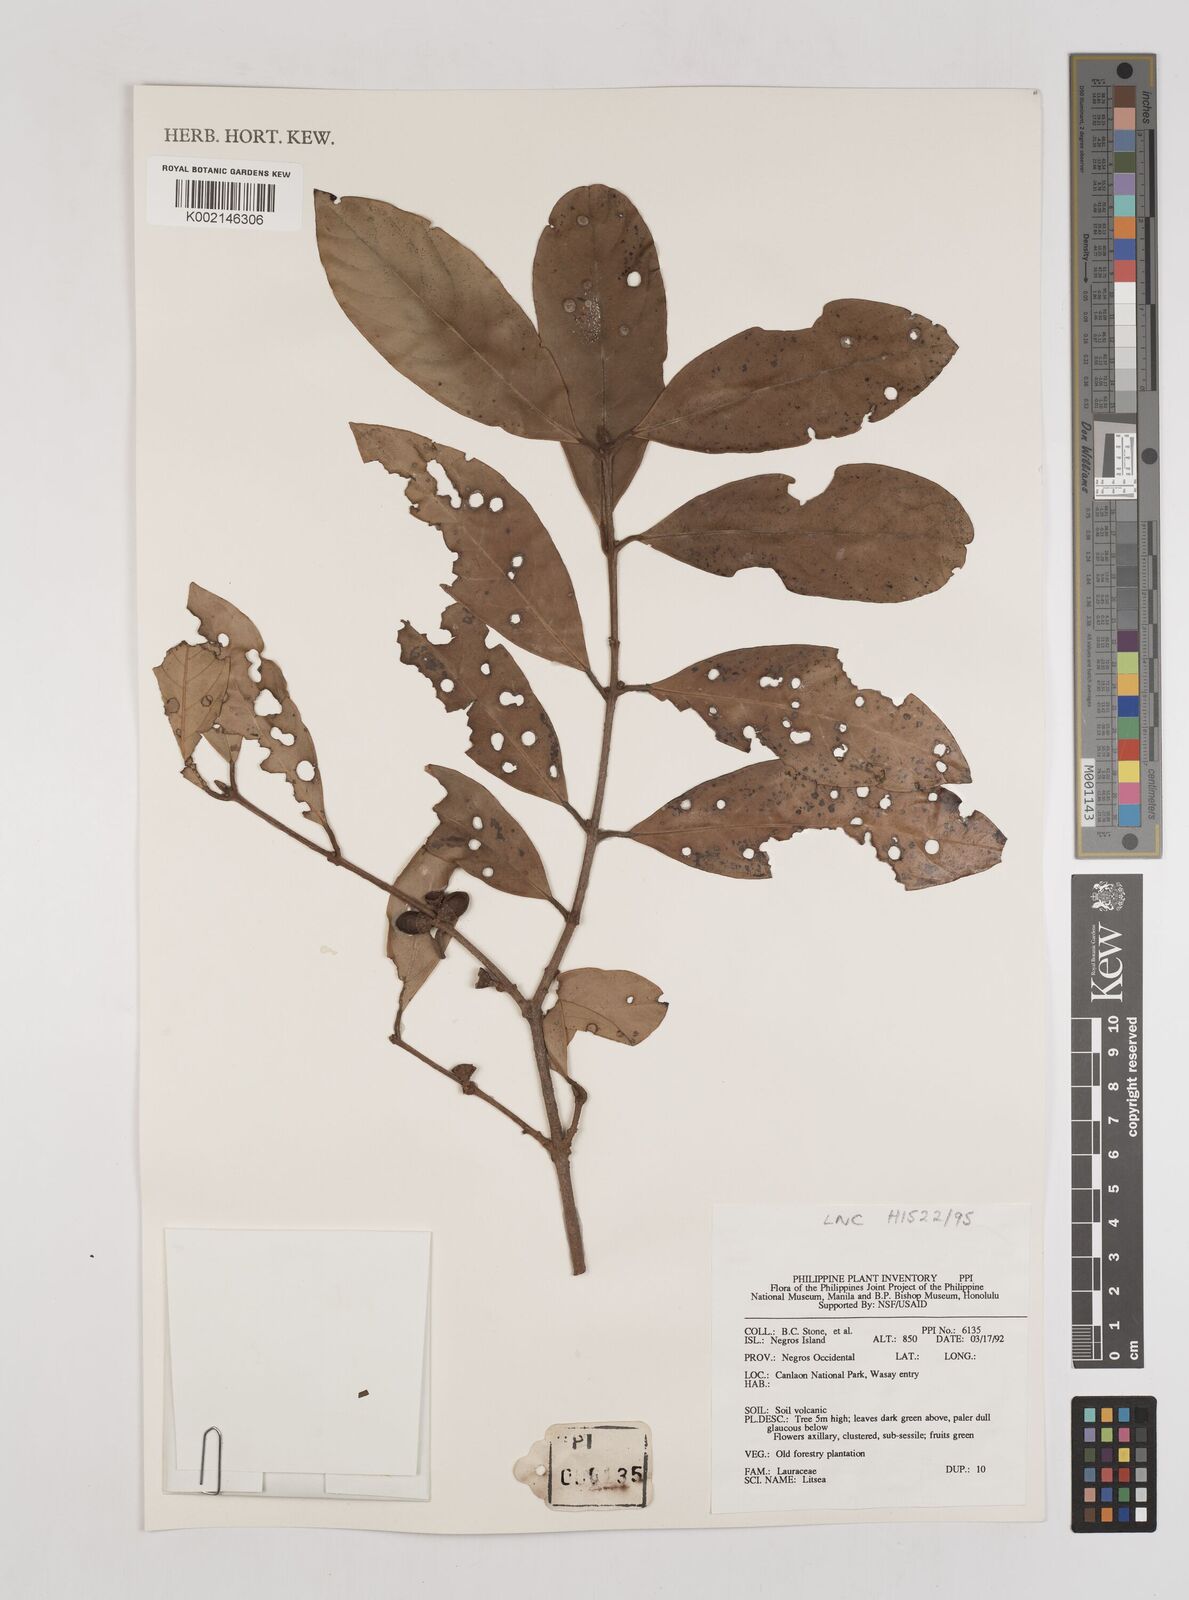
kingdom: Plantae
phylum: Tracheophyta
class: Magnoliopsida
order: Laurales
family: Lauraceae
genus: Litsea
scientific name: Litsea
